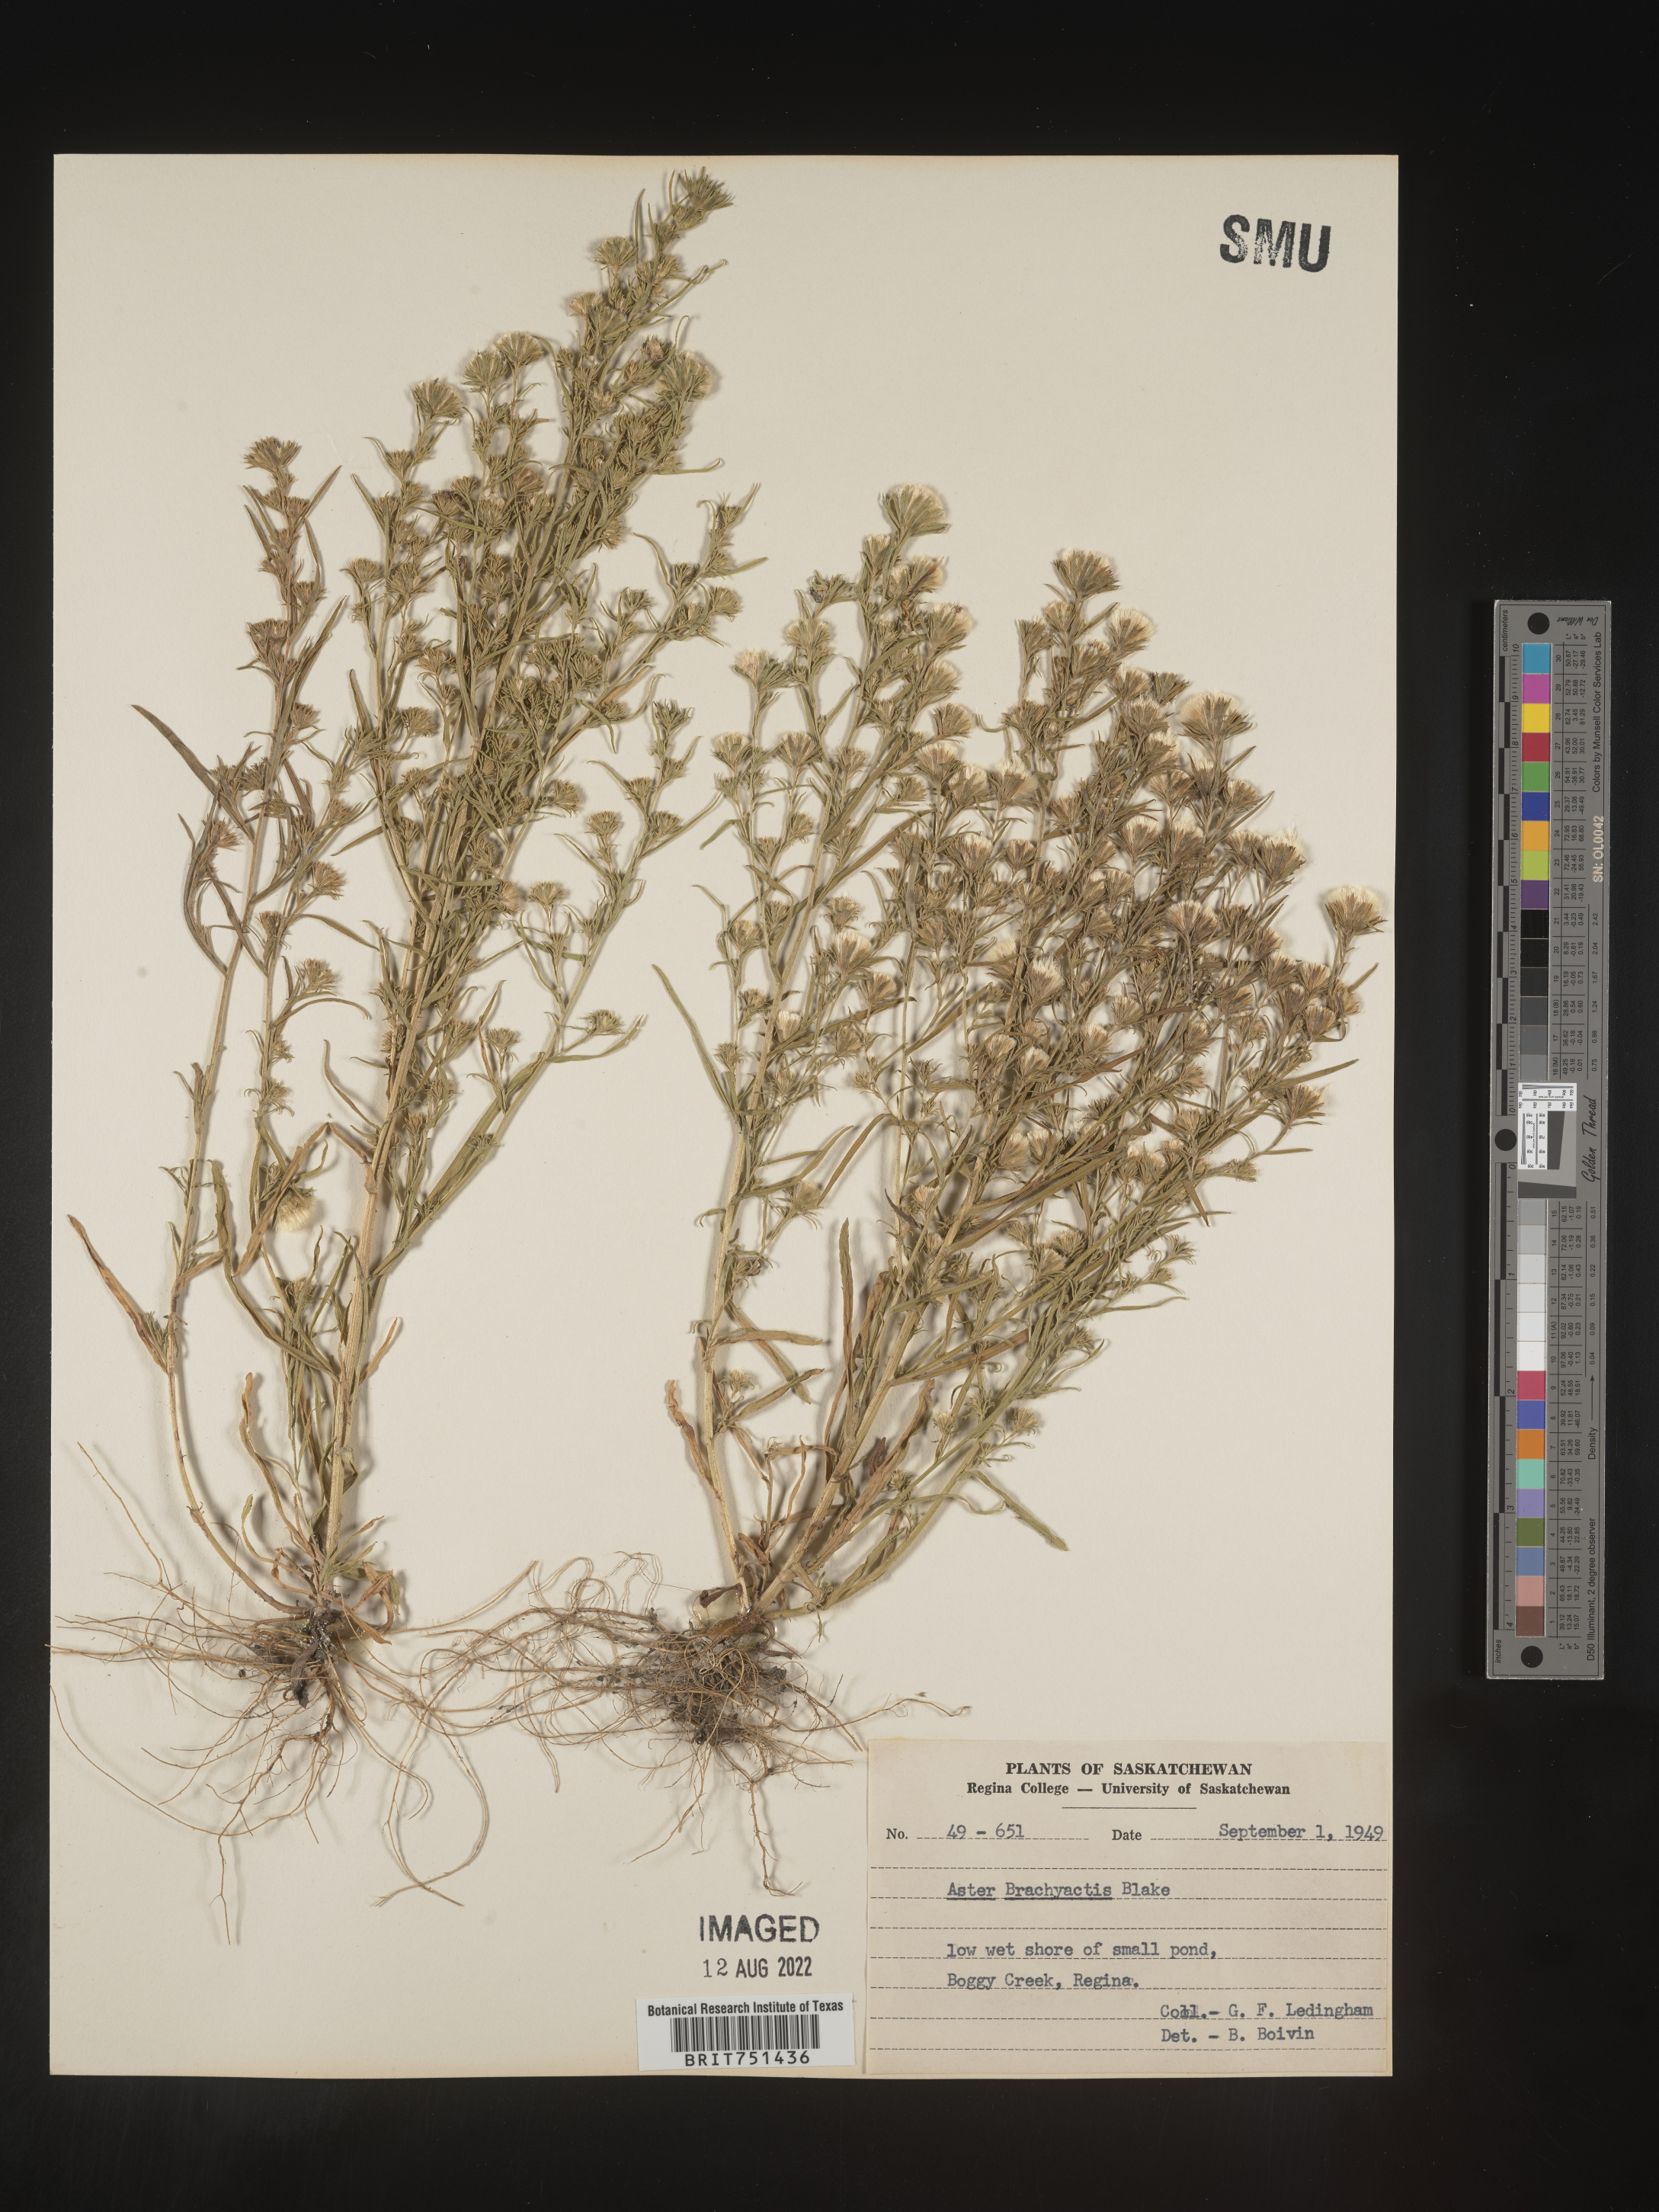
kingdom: Plantae
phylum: Tracheophyta
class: Magnoliopsida
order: Asterales
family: Asteraceae
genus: Symphyotrichum
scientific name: Symphyotrichum ciliatum
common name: Rayless annual aster
